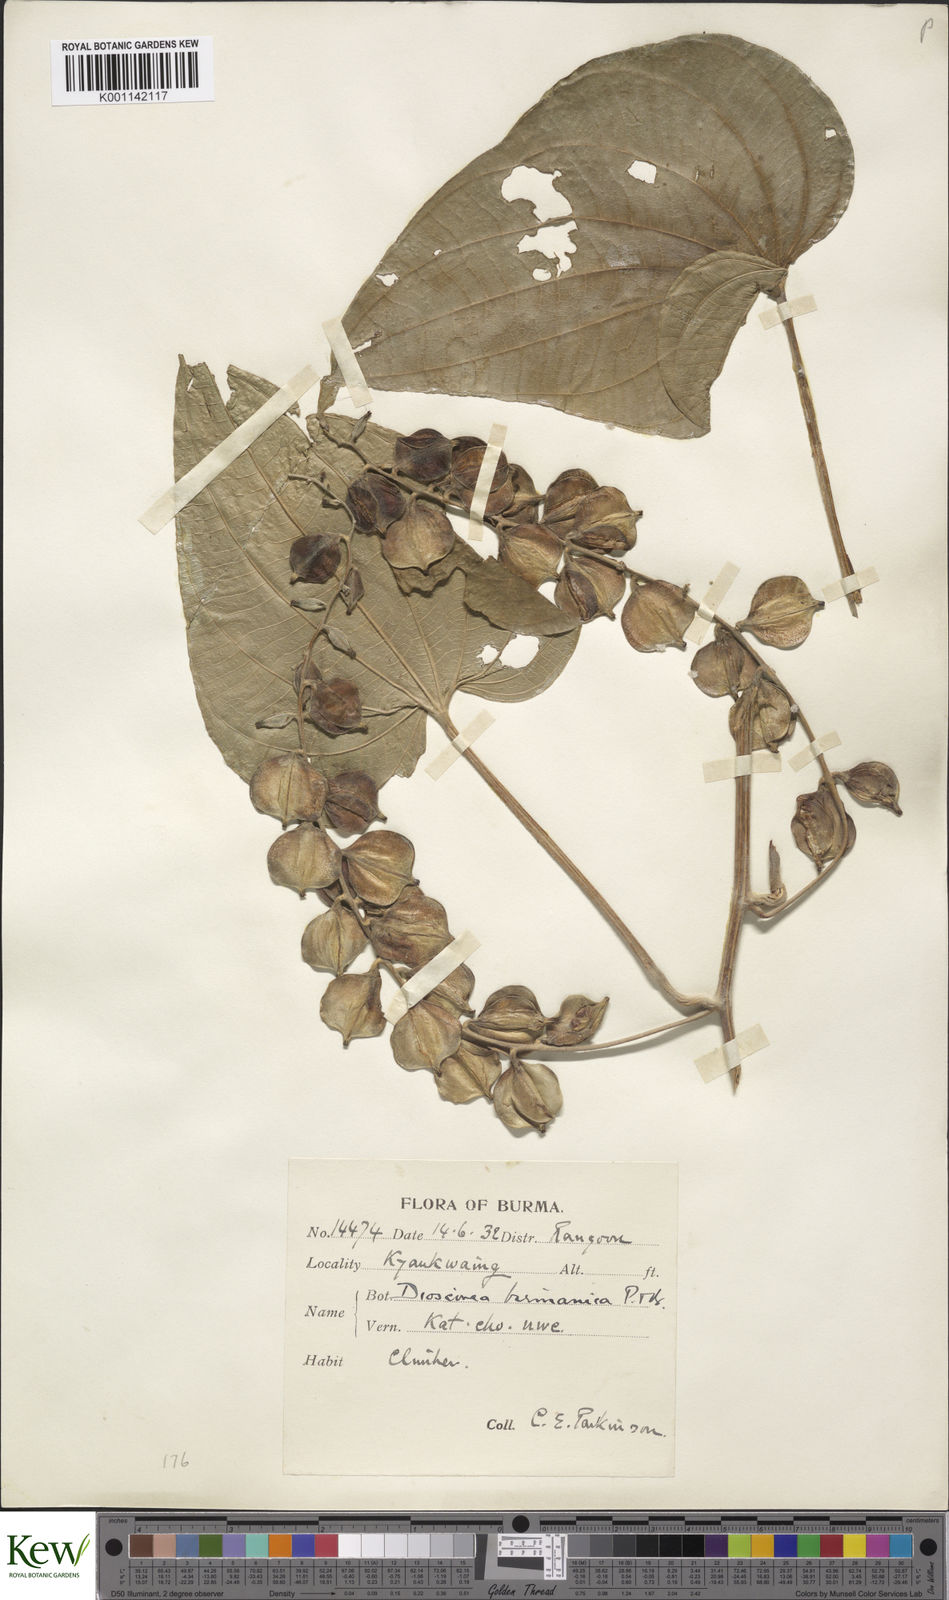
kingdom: Plantae
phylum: Tracheophyta
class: Liliopsida
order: Dioscoreales
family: Dioscoreaceae
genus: Dioscorea
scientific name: Dioscorea birmanica
